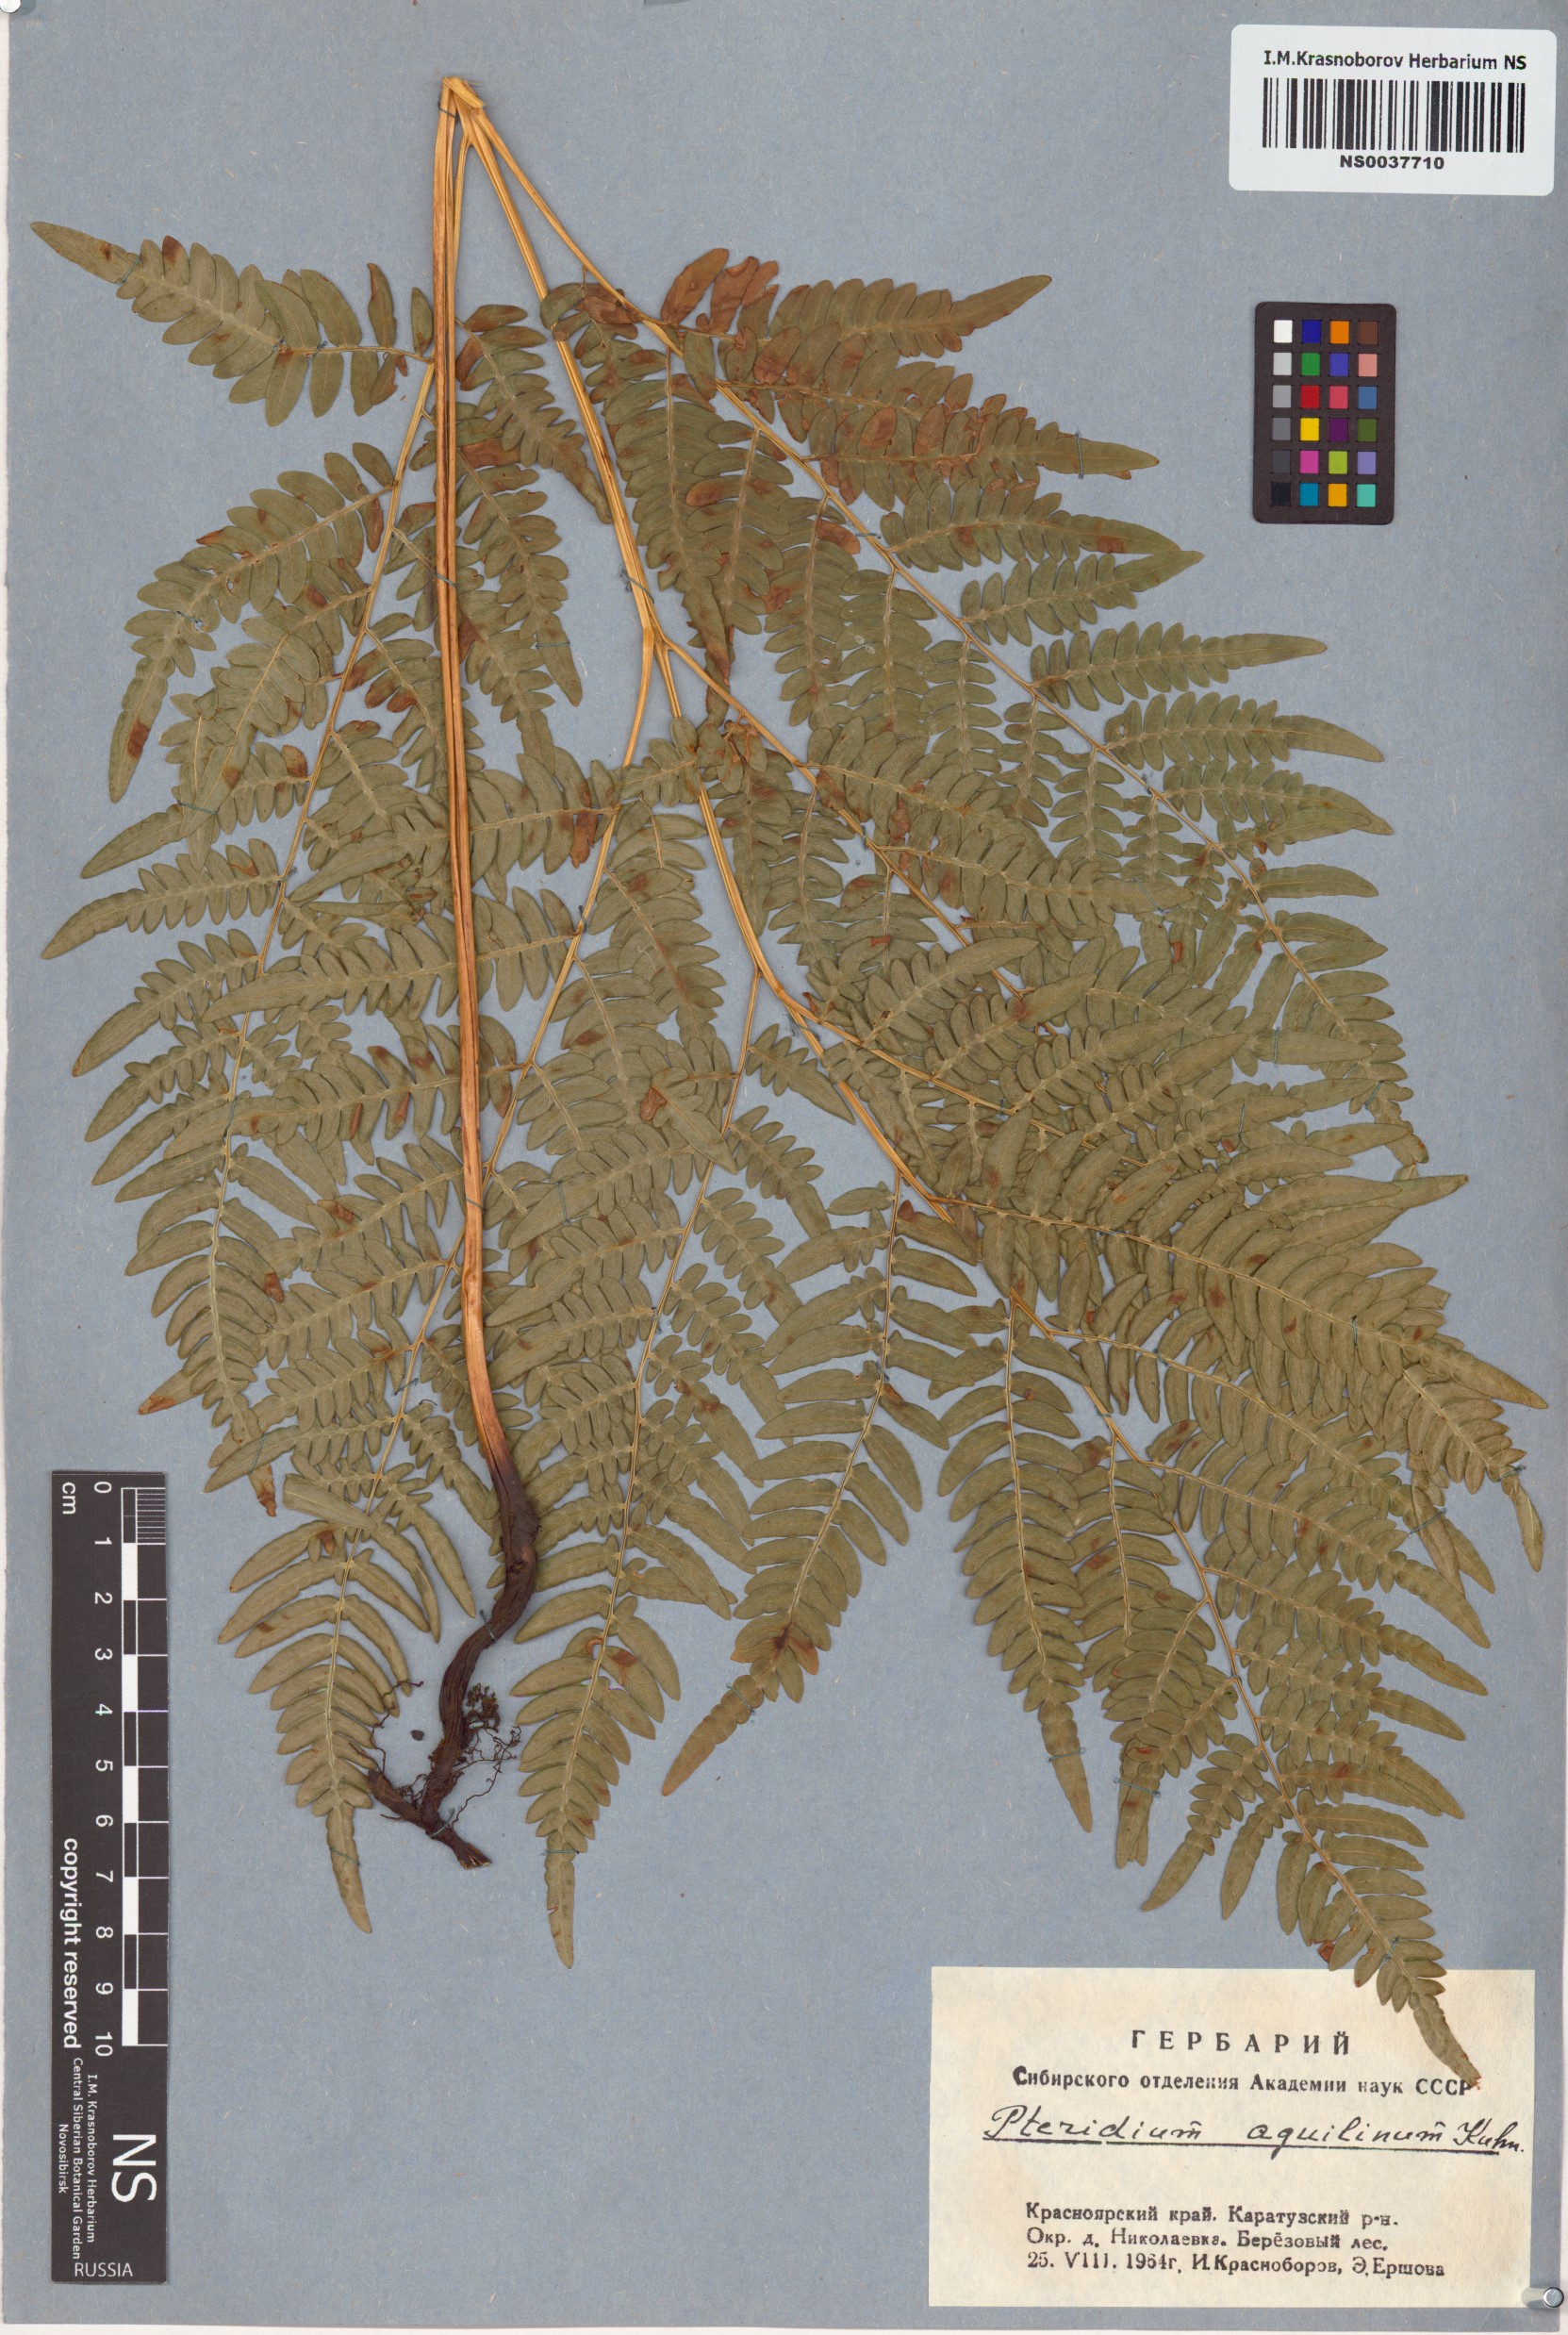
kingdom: Plantae
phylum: Tracheophyta
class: Polypodiopsida
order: Polypodiales
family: Dennstaedtiaceae
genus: Pteridium
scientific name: Pteridium aquilinum
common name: Bracken
